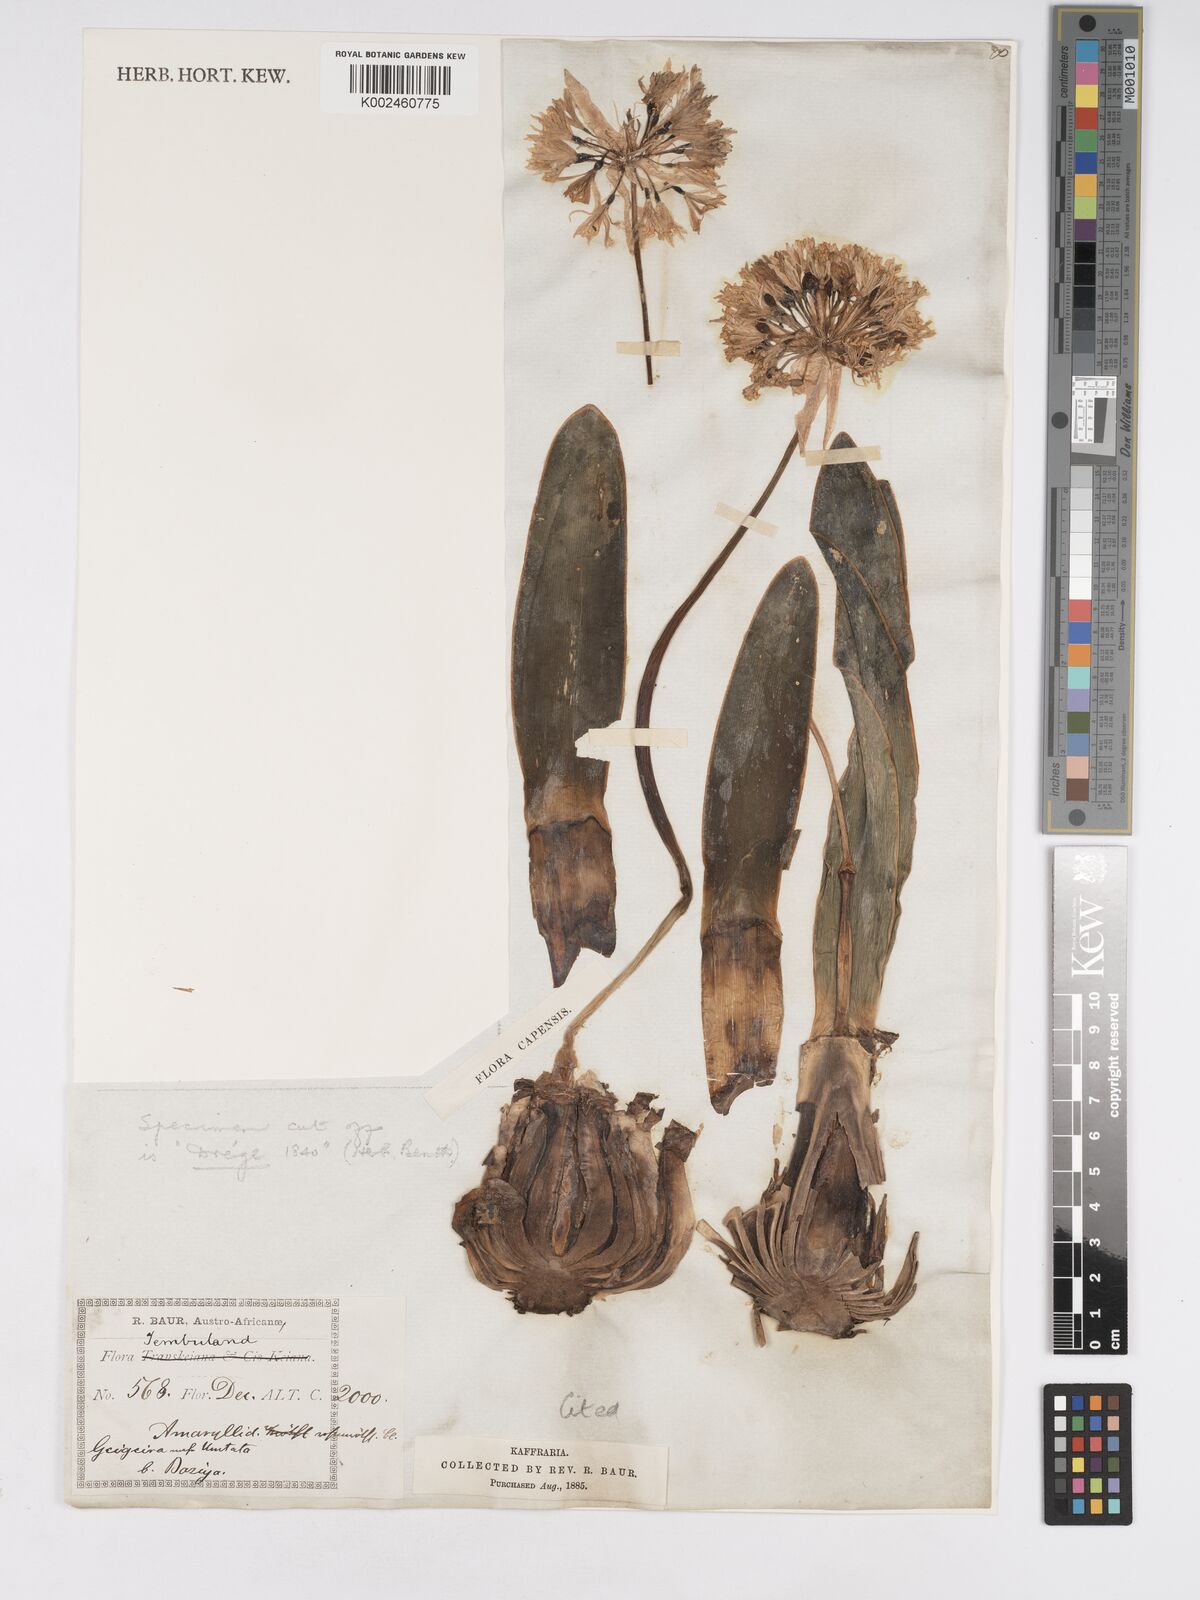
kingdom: Plantae
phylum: Tracheophyta
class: Liliopsida
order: Asparagales
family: Amaryllidaceae
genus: Haemanthus
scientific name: Haemanthus montanus
